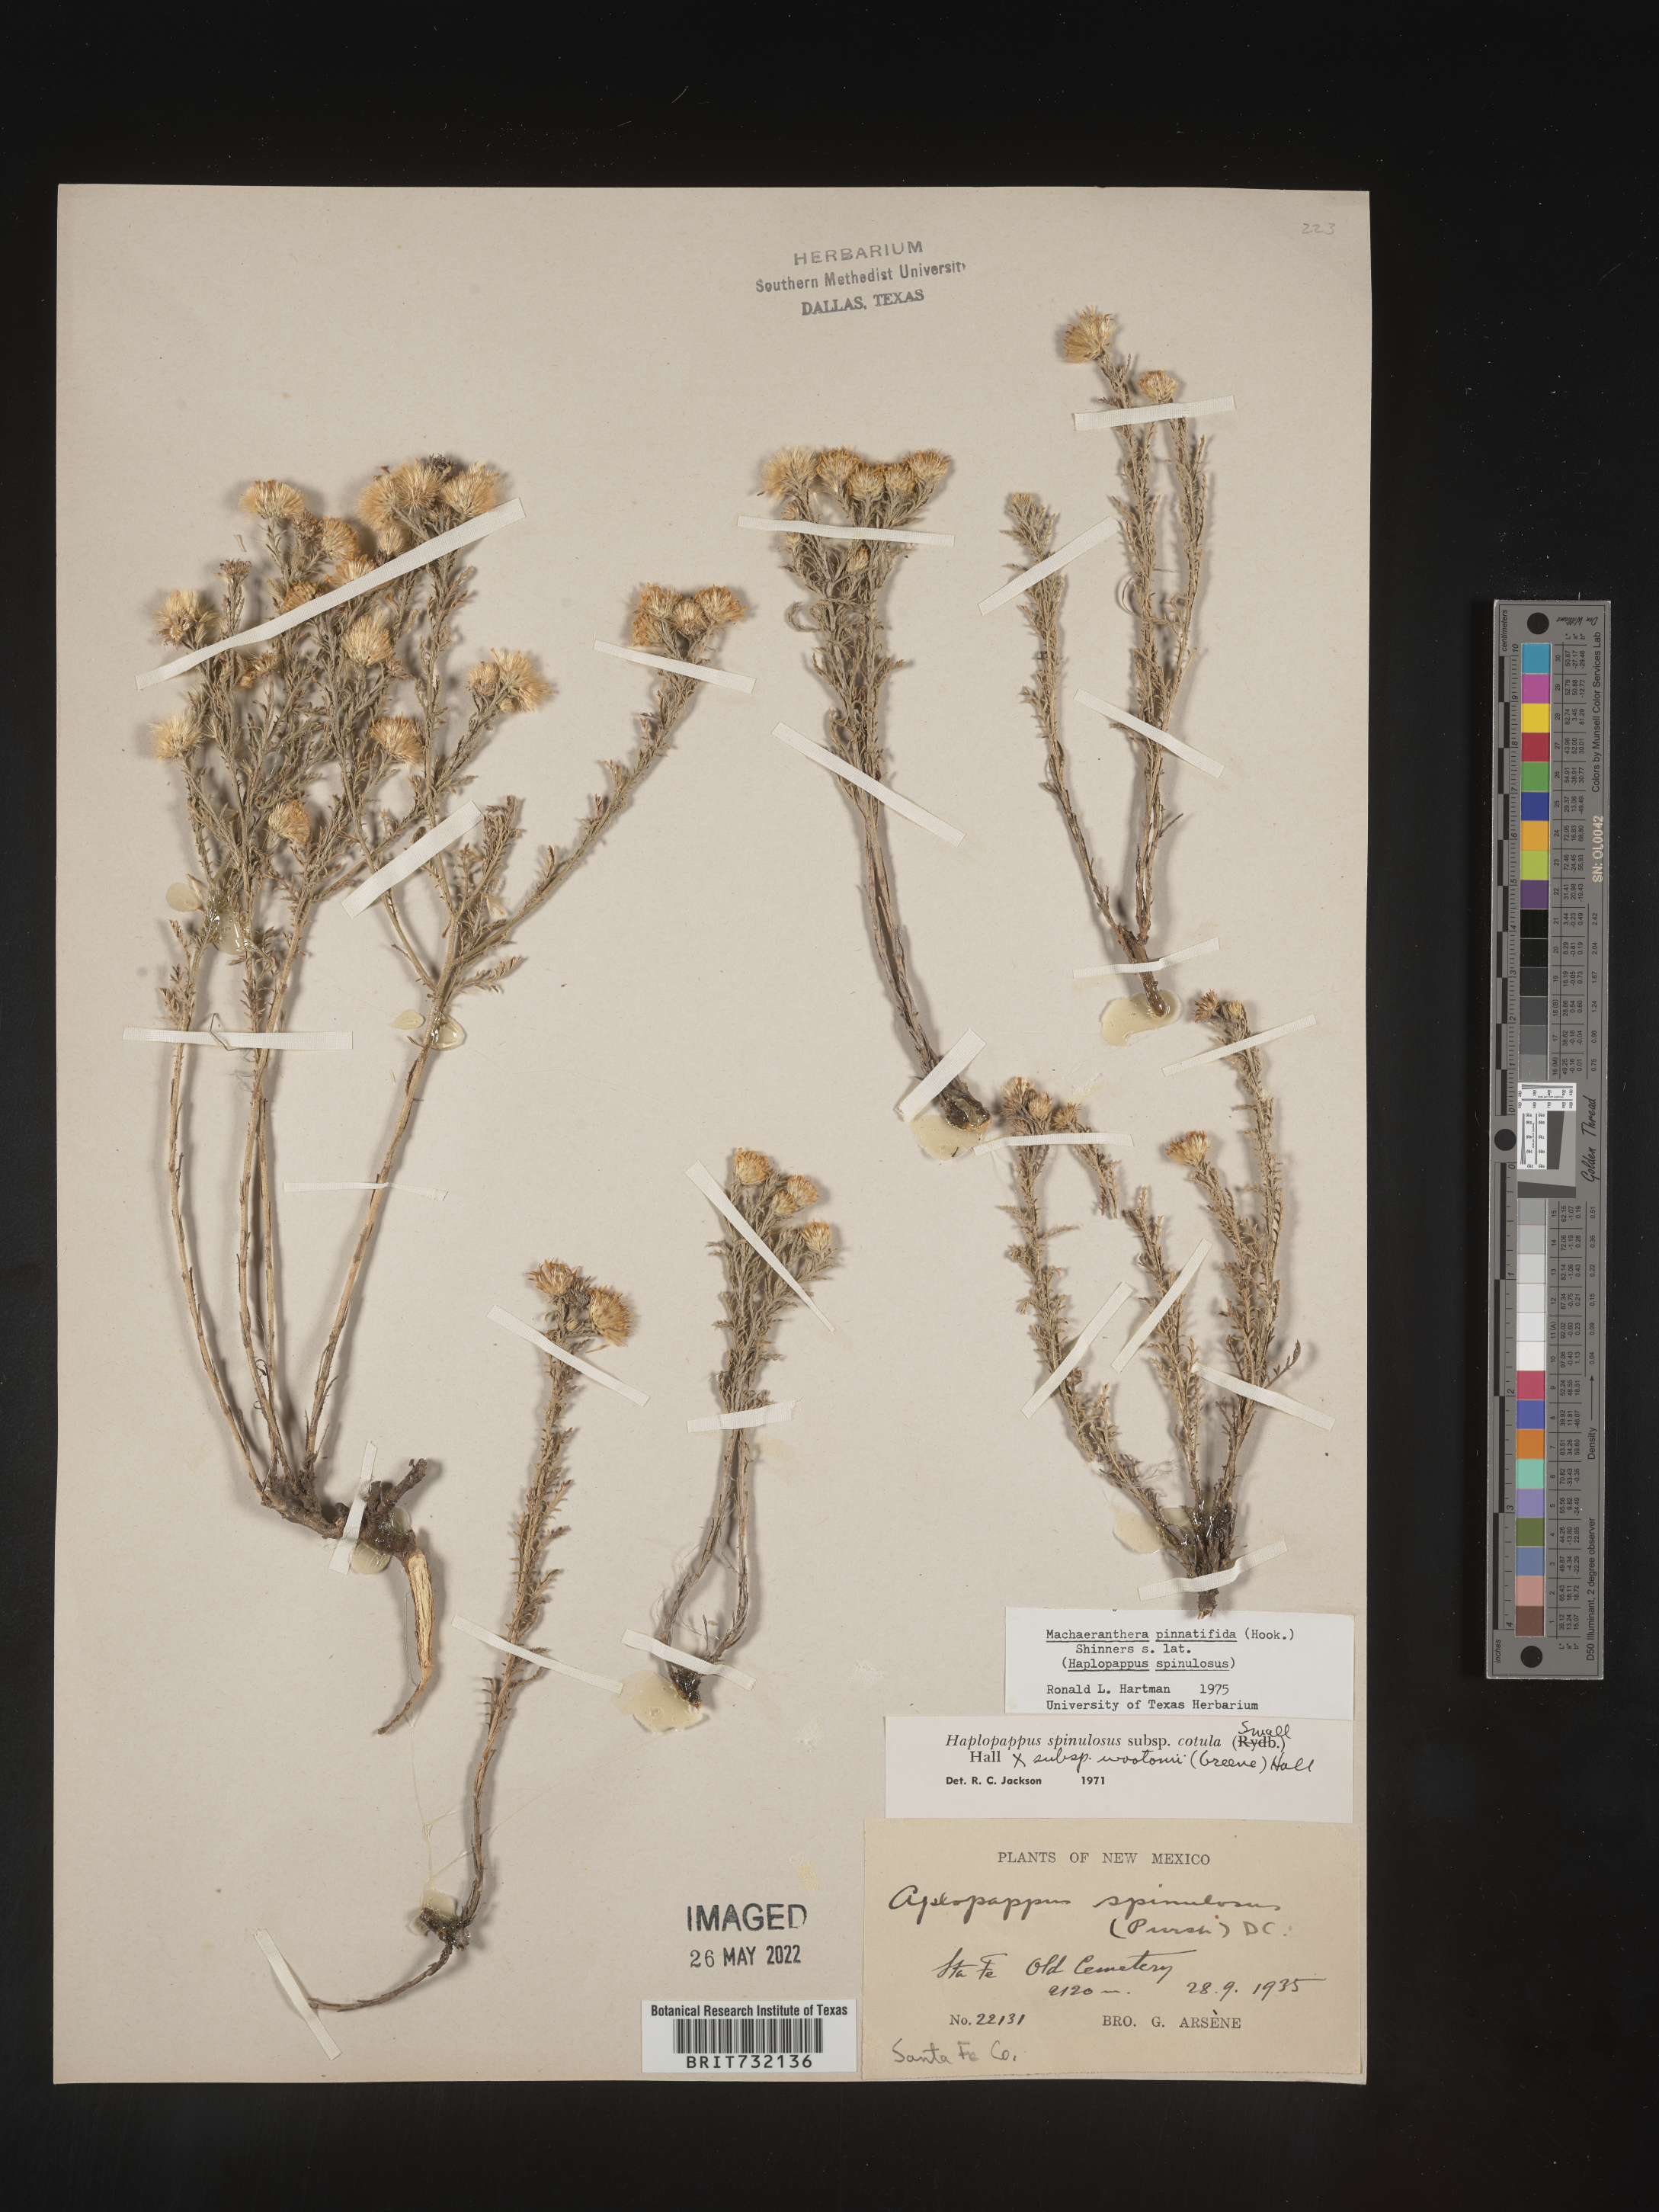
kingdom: Plantae
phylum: Tracheophyta
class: Magnoliopsida
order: Asterales
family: Asteraceae
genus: Xanthisma
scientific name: Xanthisma spinulosum
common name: Spiny goldenweed
